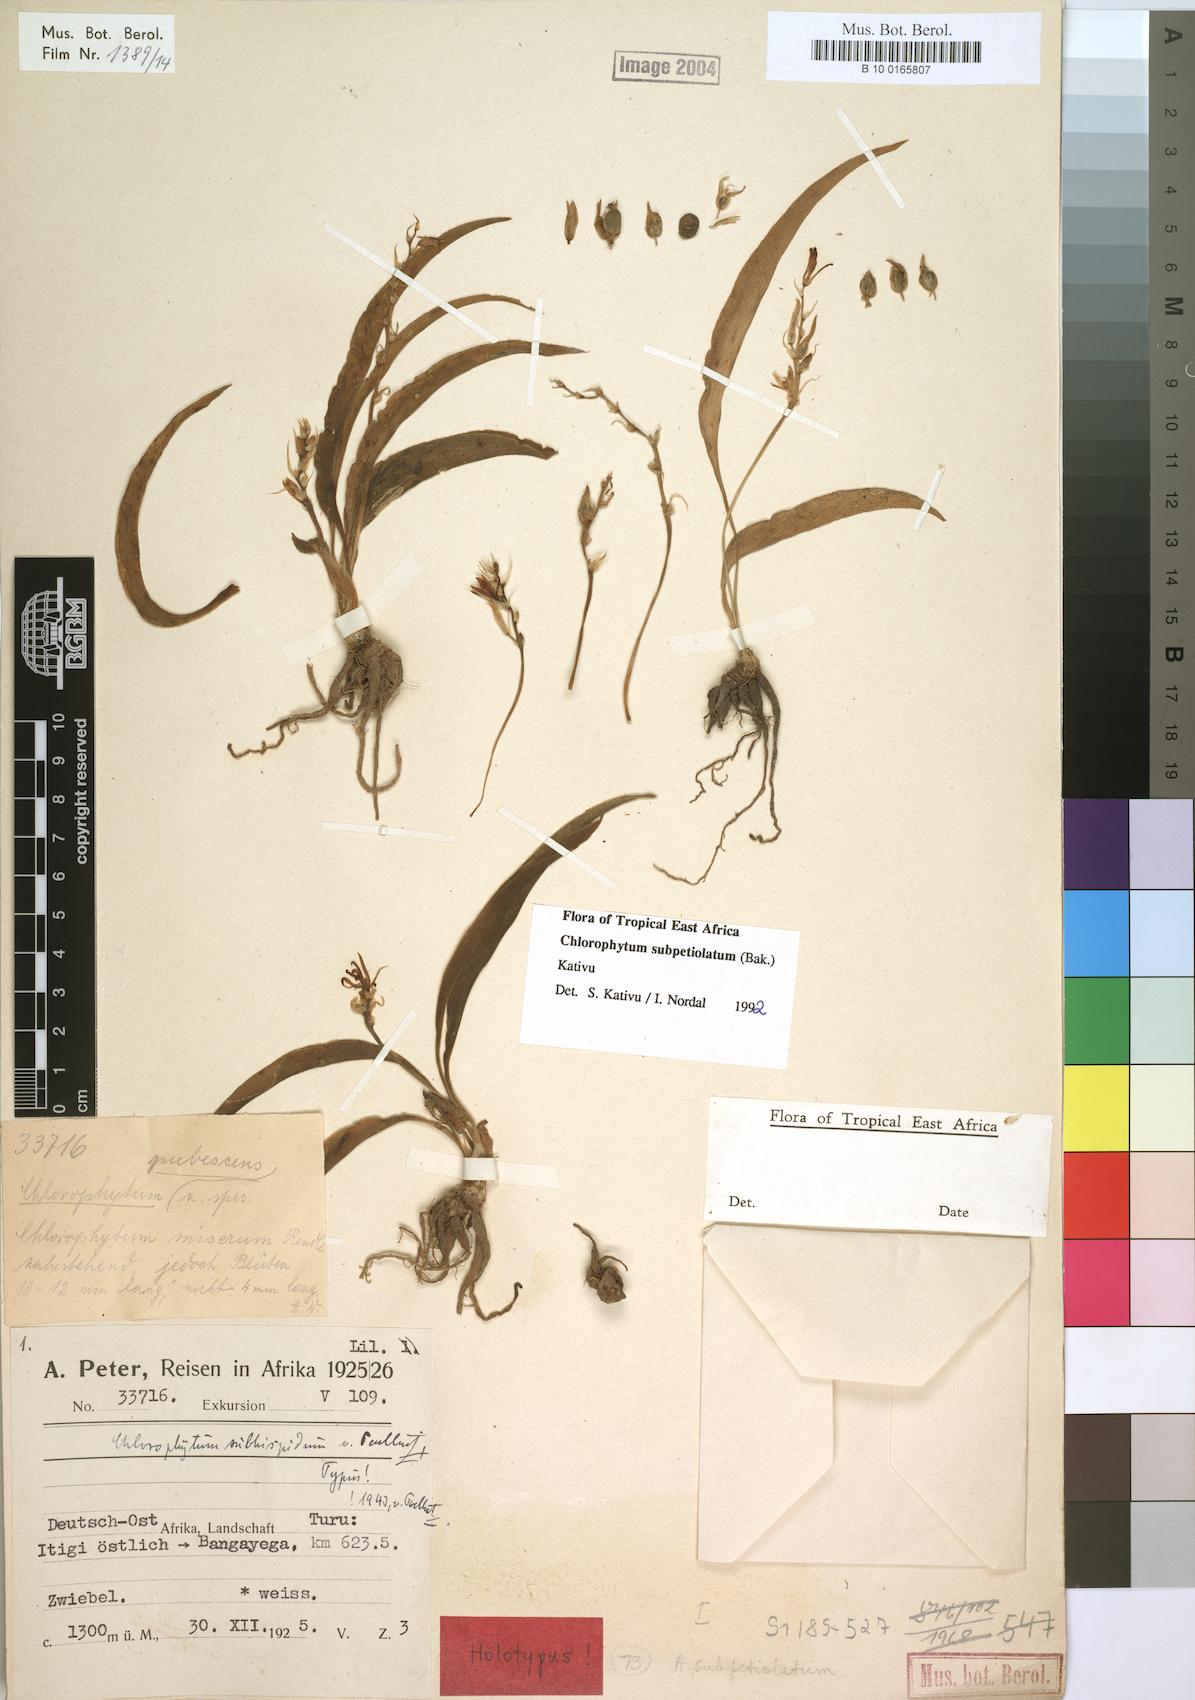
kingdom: Plantae
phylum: Tracheophyta
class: Liliopsida
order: Asparagales
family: Asparagaceae
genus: Chlorophytum
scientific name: Chlorophytum subpetiolatum
